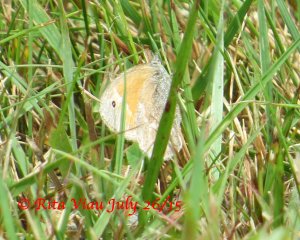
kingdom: Animalia
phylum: Arthropoda
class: Insecta
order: Lepidoptera
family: Nymphalidae
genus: Coenonympha
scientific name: Coenonympha tullia
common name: Large Heath
